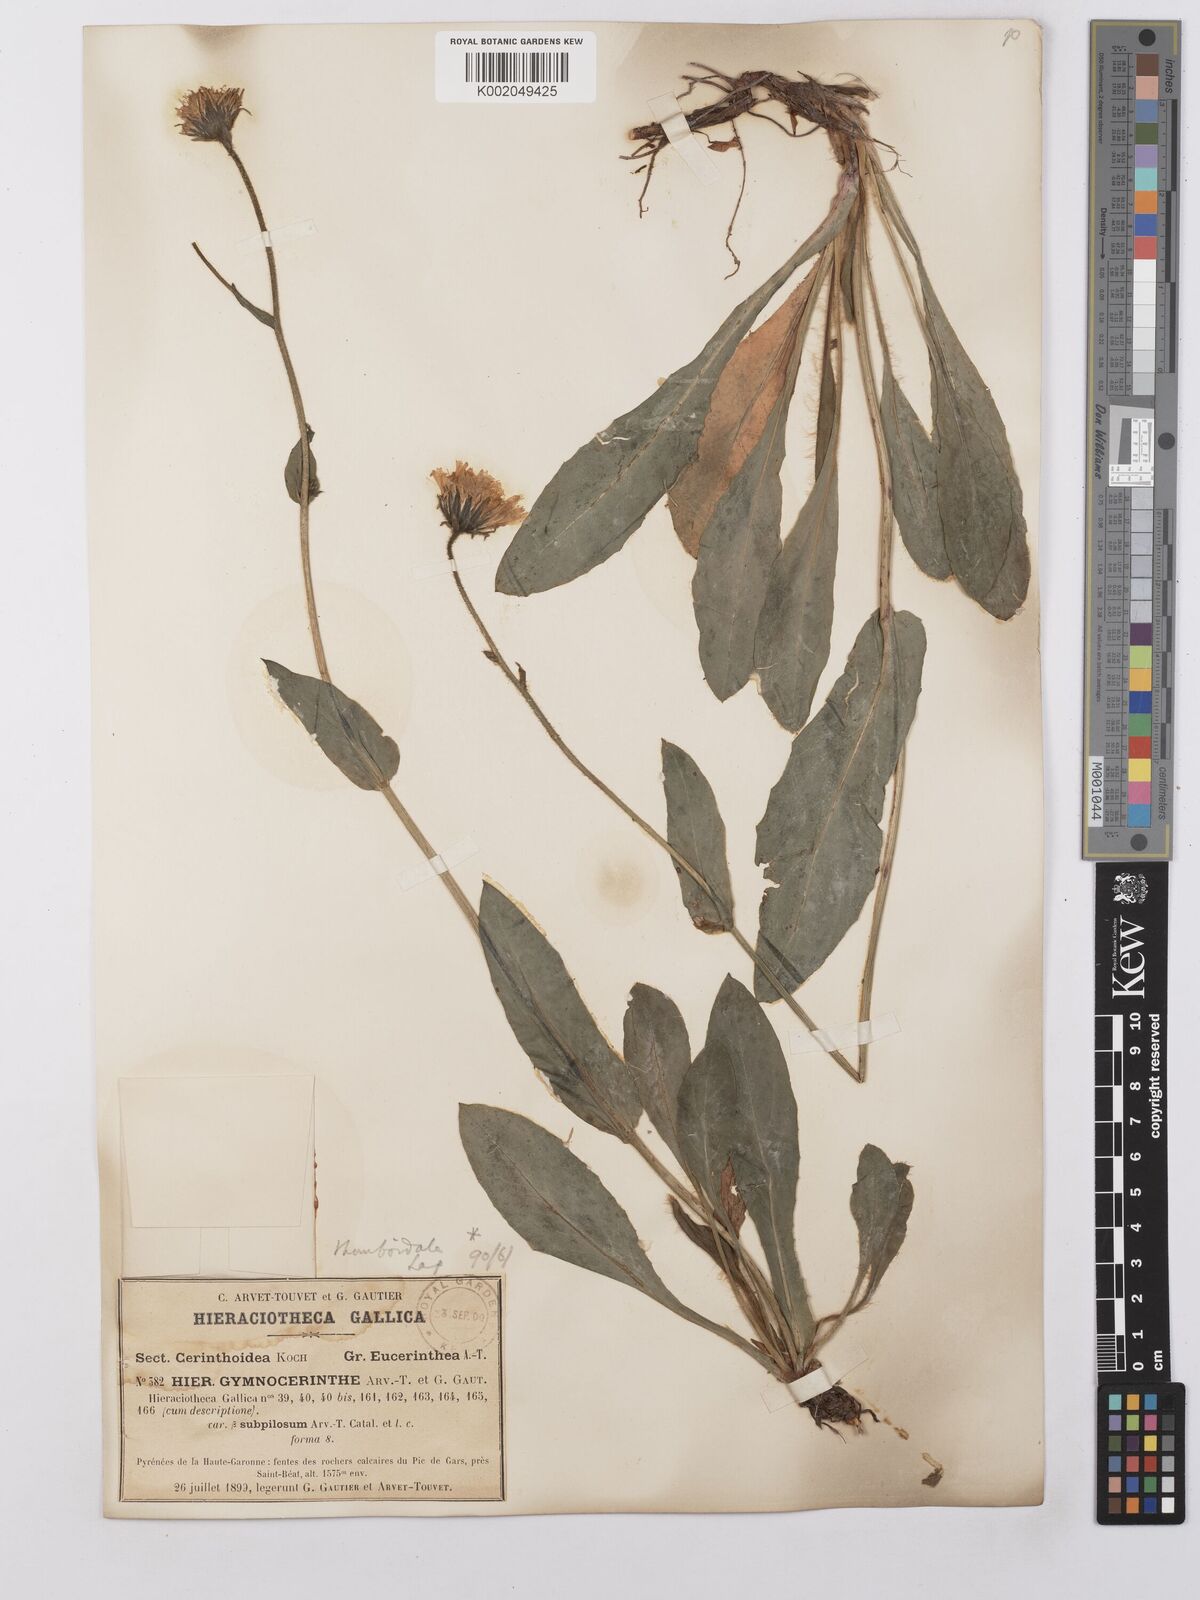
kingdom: Plantae
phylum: Tracheophyta
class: Magnoliopsida
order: Asterales
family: Asteraceae
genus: Hieracium
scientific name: Hieracium cerinthoides
